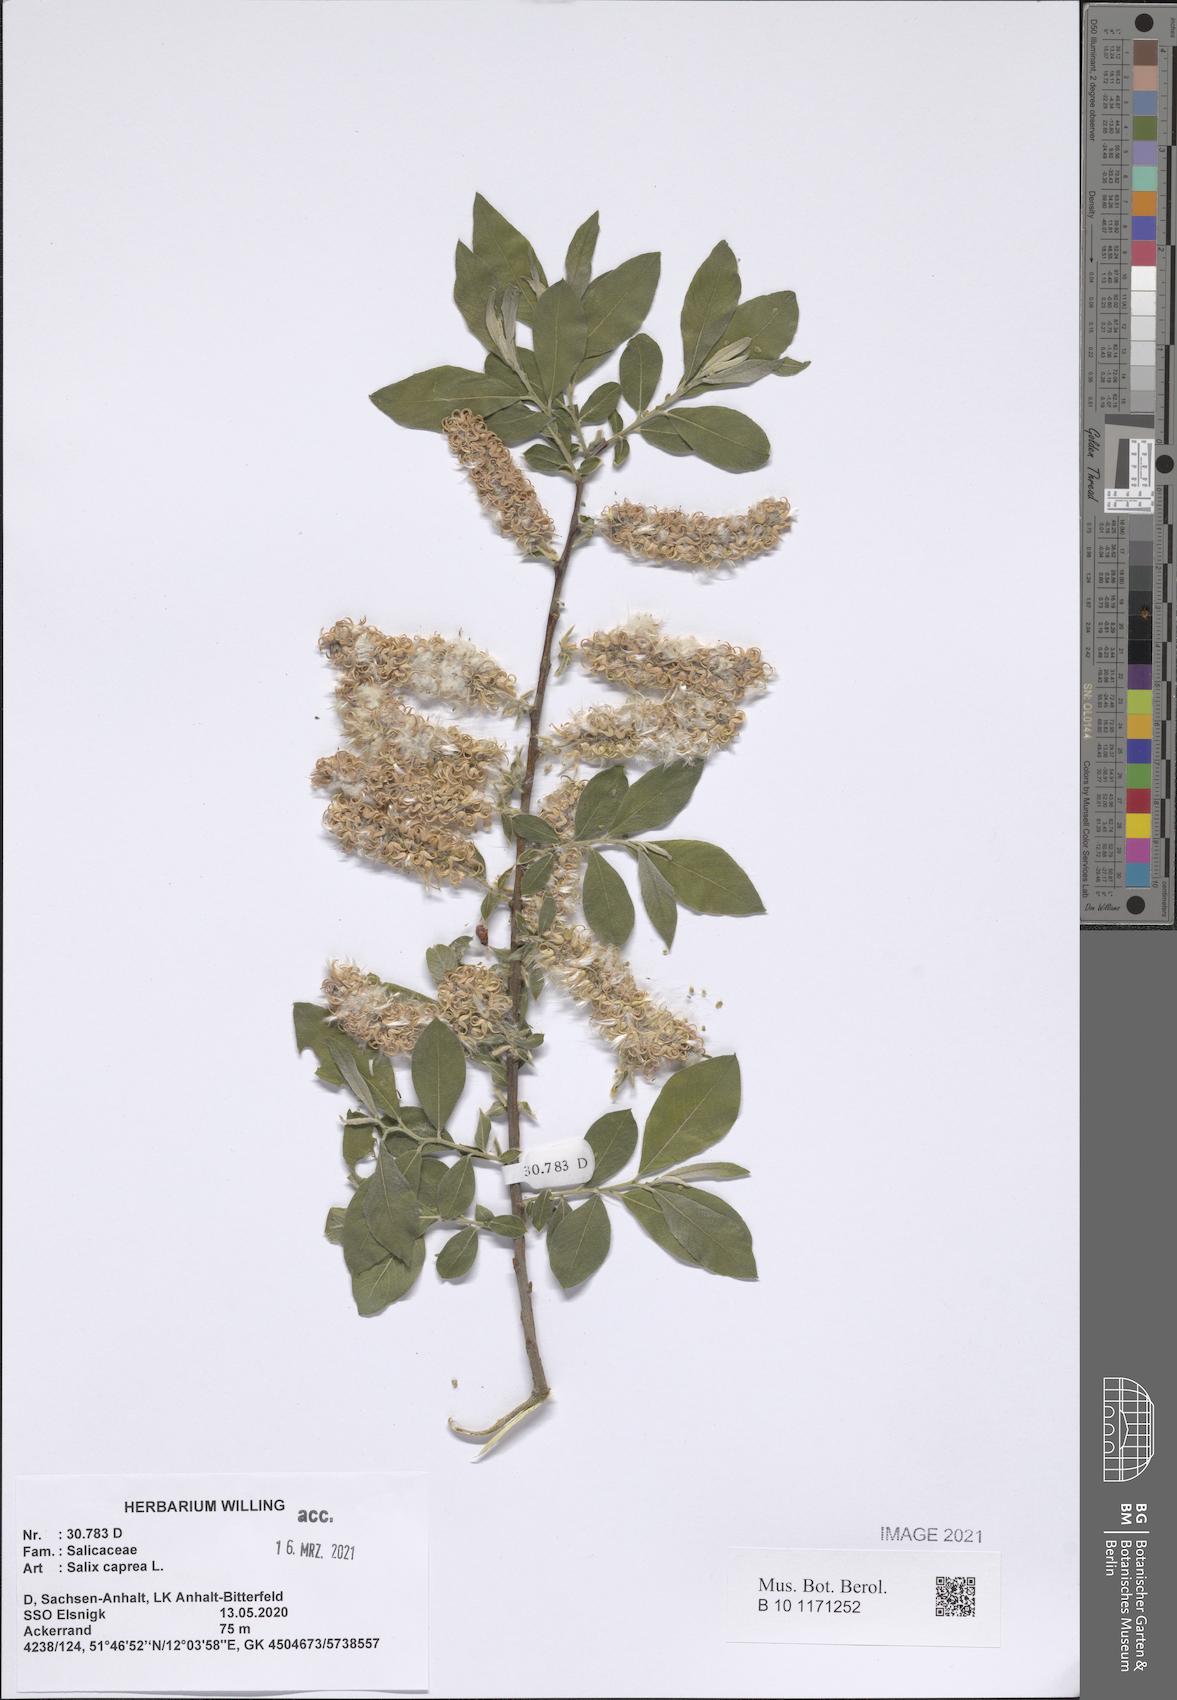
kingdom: Plantae
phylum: Tracheophyta
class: Magnoliopsida
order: Malpighiales
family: Salicaceae
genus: Salix
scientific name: Salix caprea
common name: Goat willow
